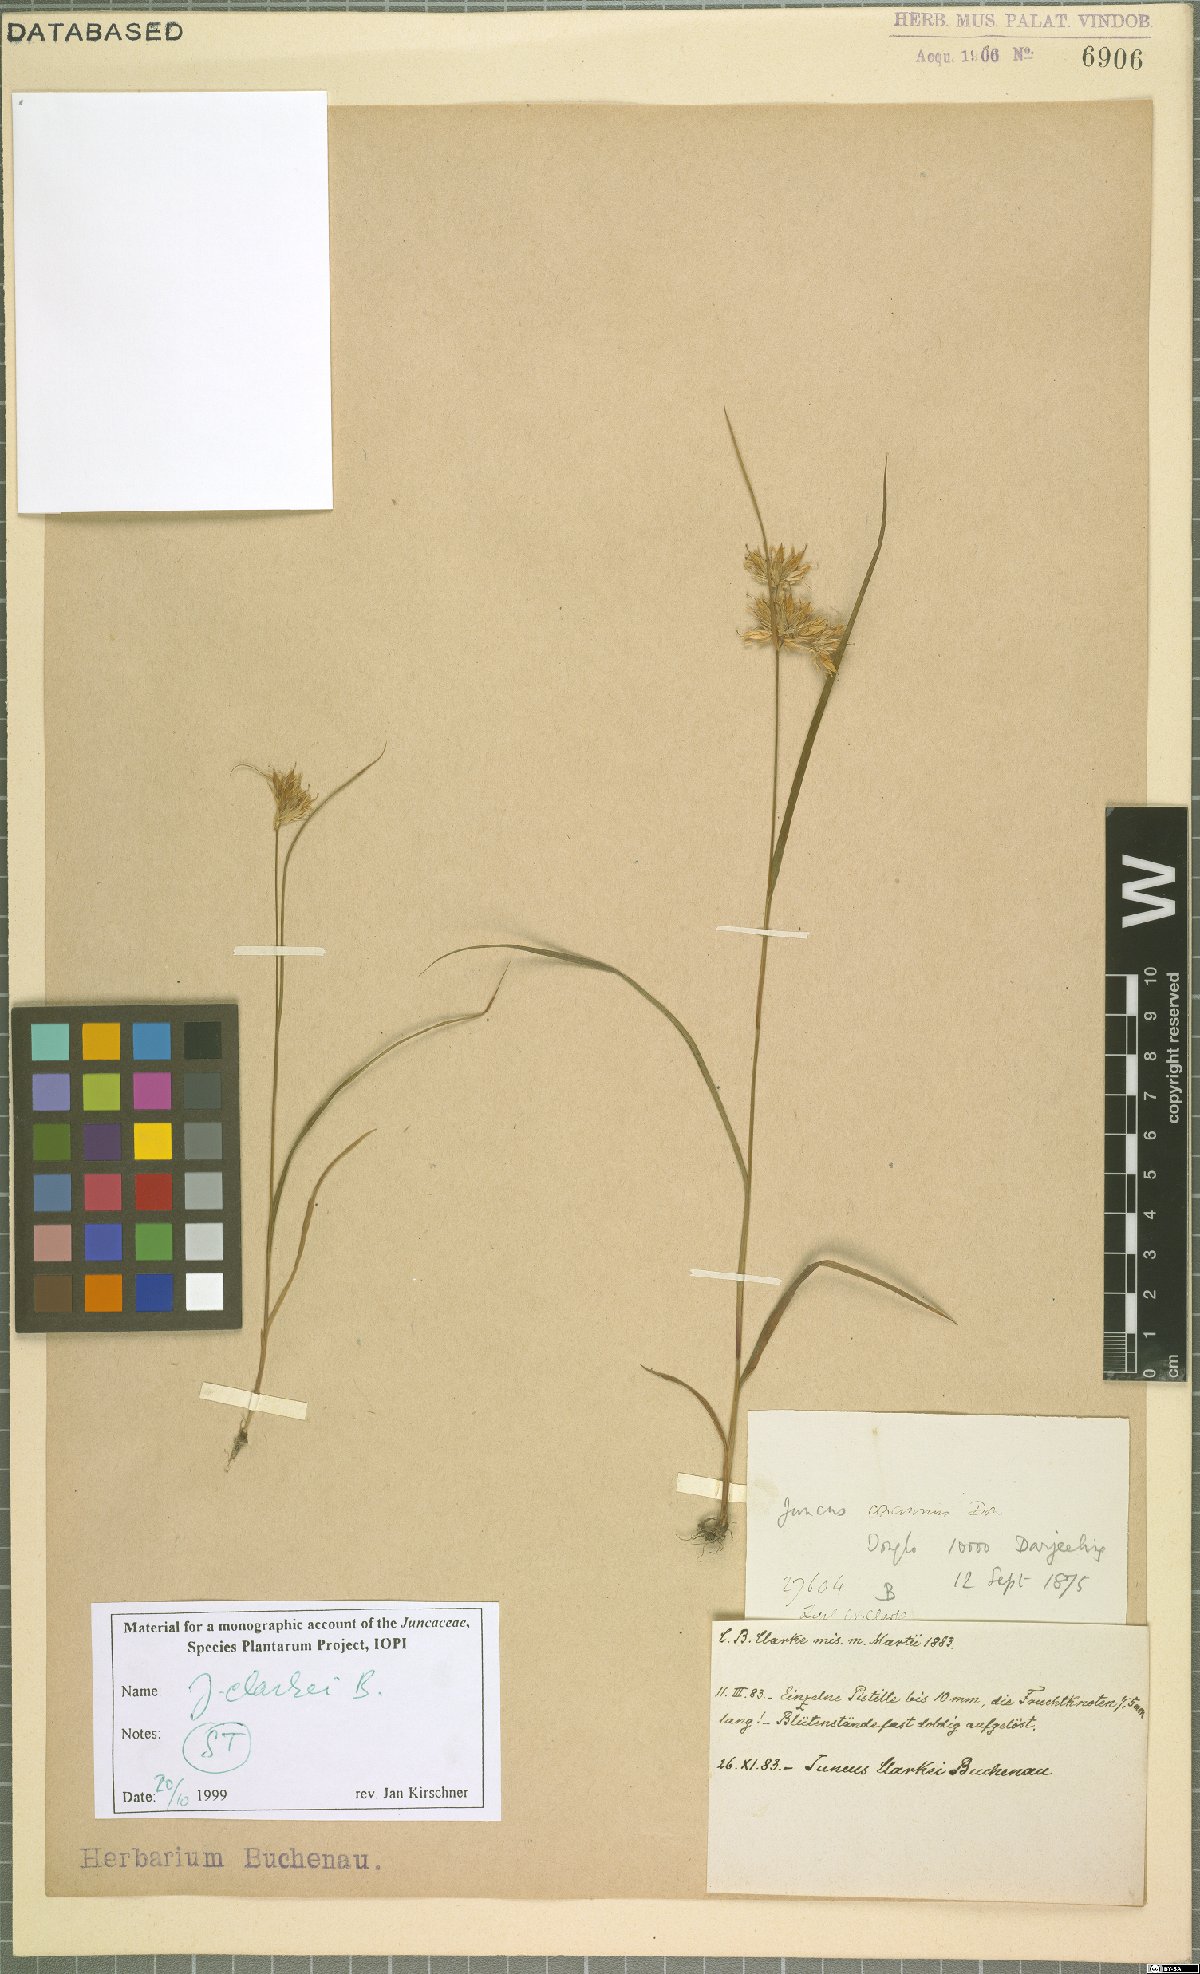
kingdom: Plantae
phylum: Tracheophyta
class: Liliopsida
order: Poales
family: Juncaceae
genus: Juncus
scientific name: Juncus clarkei
